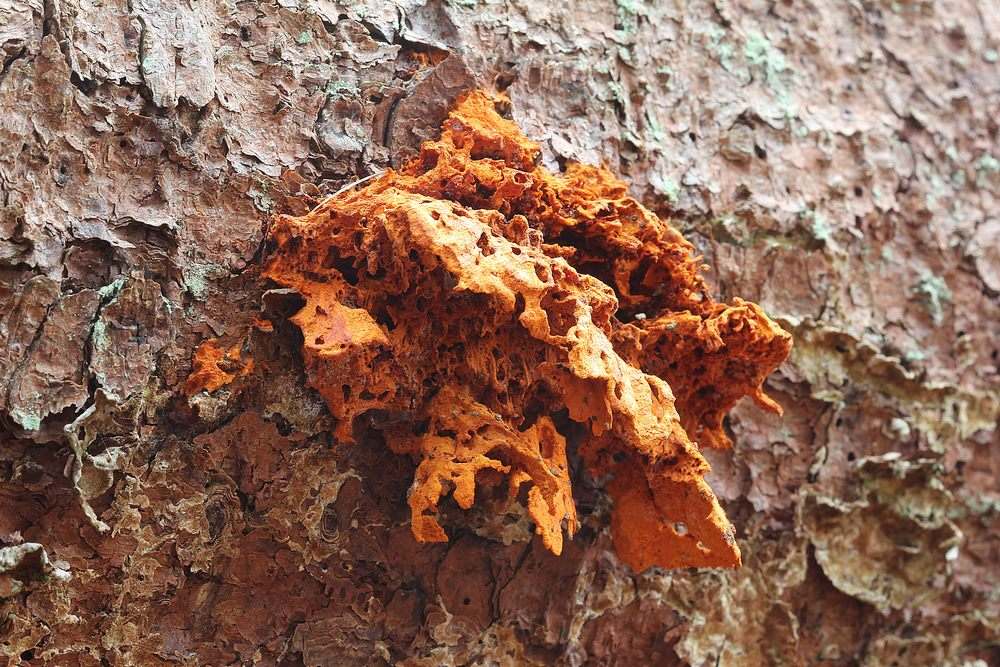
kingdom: Fungi
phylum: Basidiomycota
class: Agaricomycetes
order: Polyporales
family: Pycnoporellaceae
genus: Pycnoporellus
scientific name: Pycnoporellus fulgens
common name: flammeporesvamp
